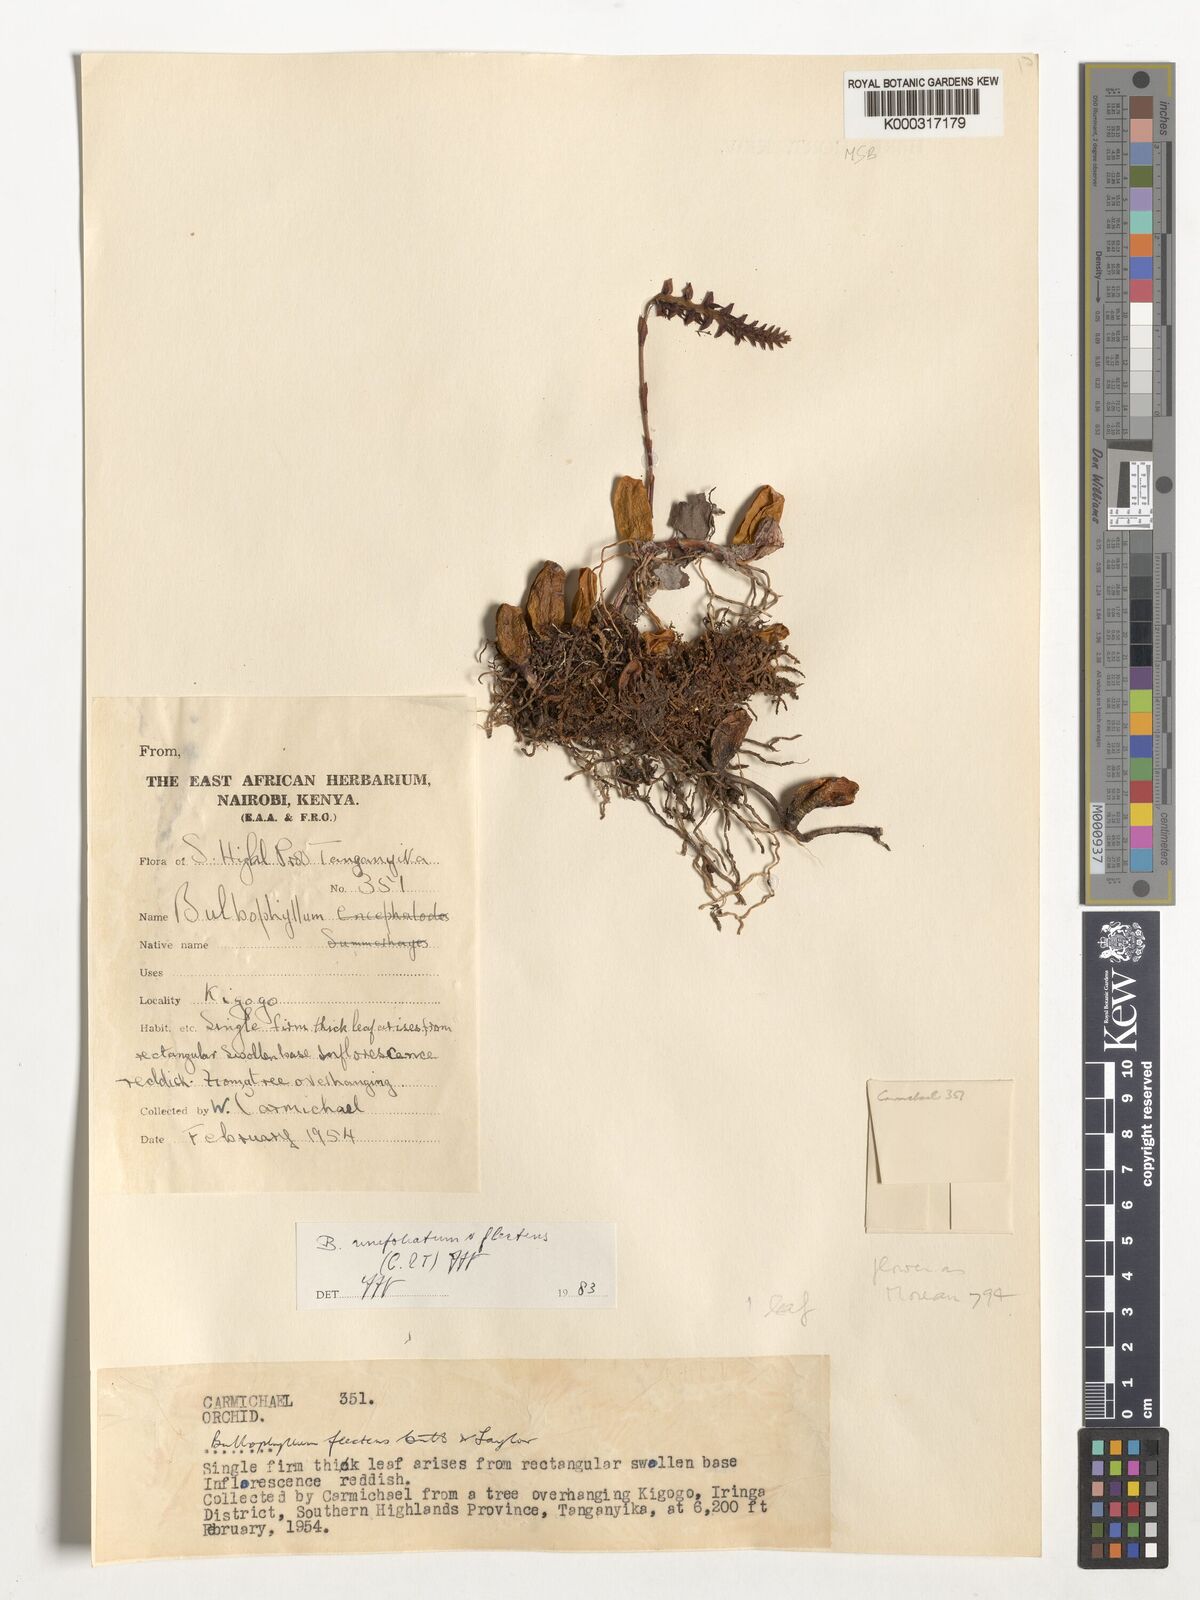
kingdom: Plantae
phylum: Tracheophyta
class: Liliopsida
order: Asparagales
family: Orchidaceae
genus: Bulbophyllum
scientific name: Bulbophyllum unifoliatum
